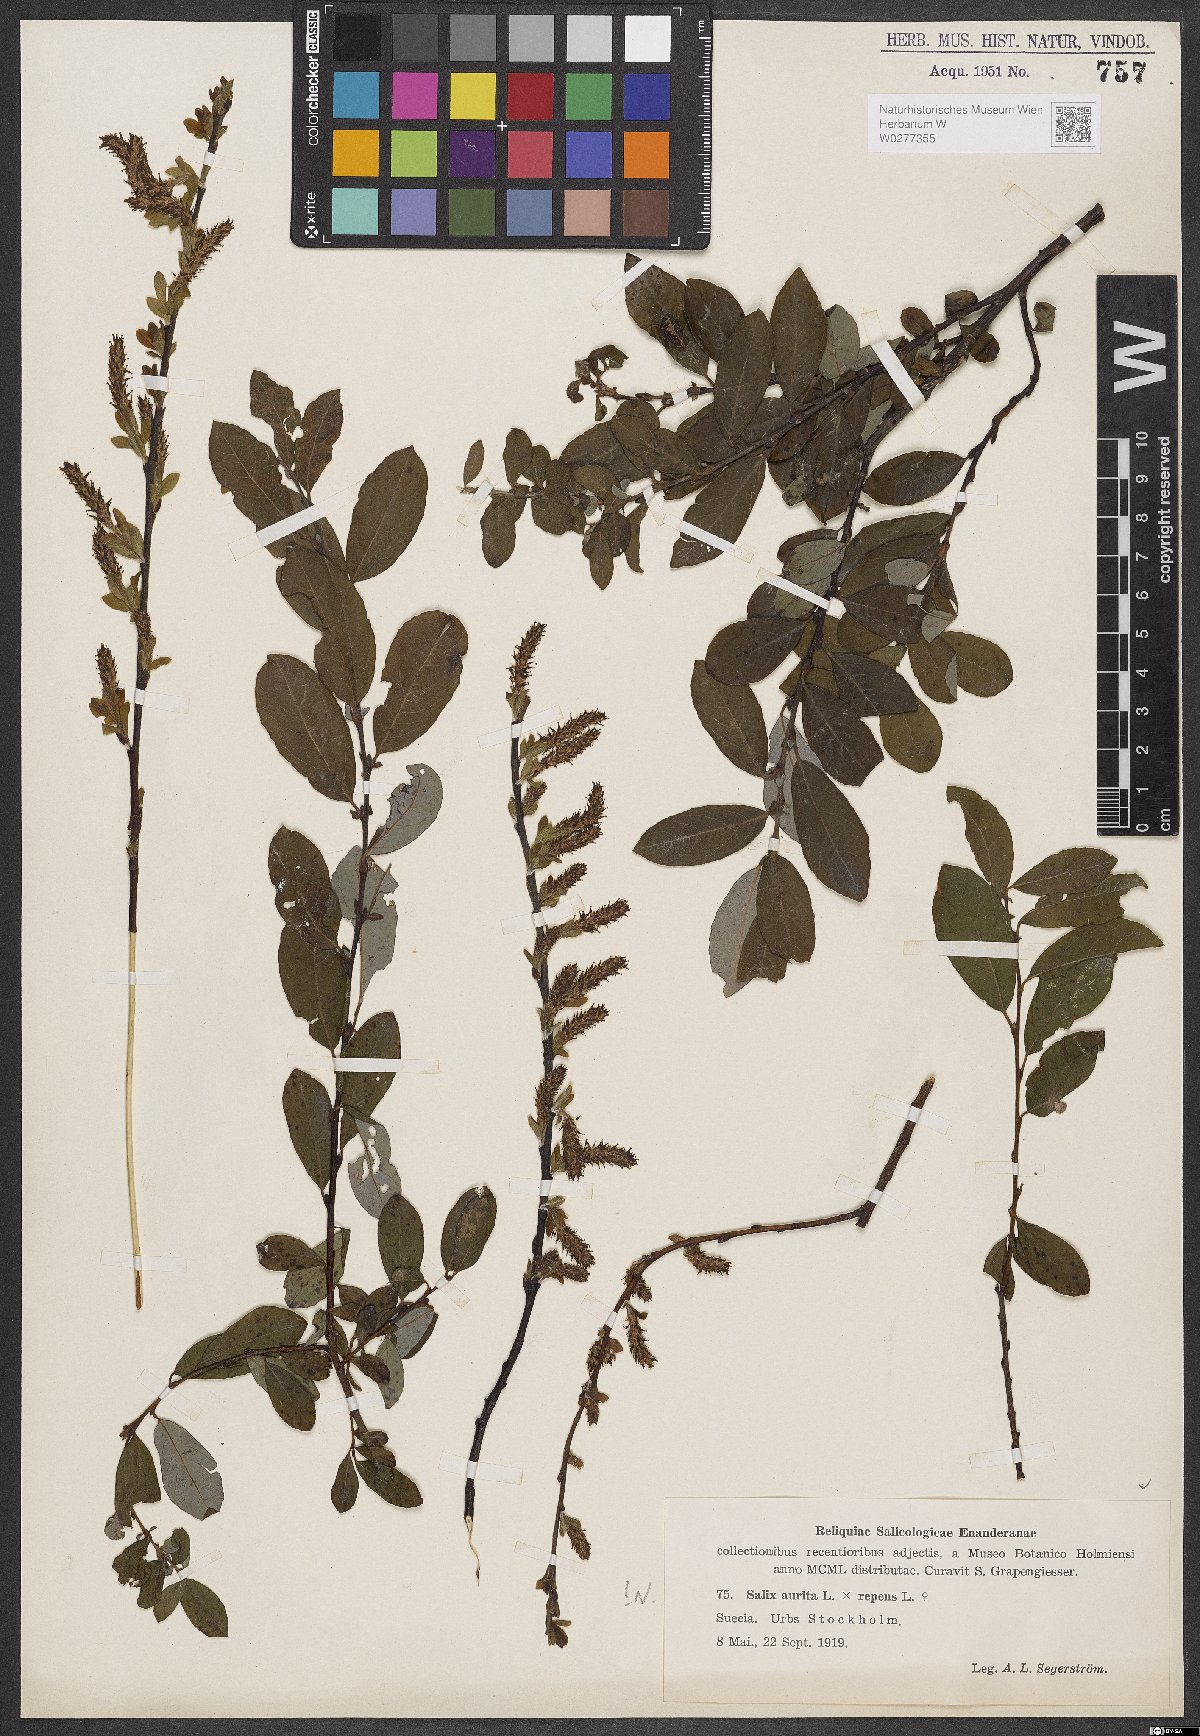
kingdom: Plantae
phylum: Tracheophyta
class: Magnoliopsida
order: Malpighiales
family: Salicaceae
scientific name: Salicaceae
